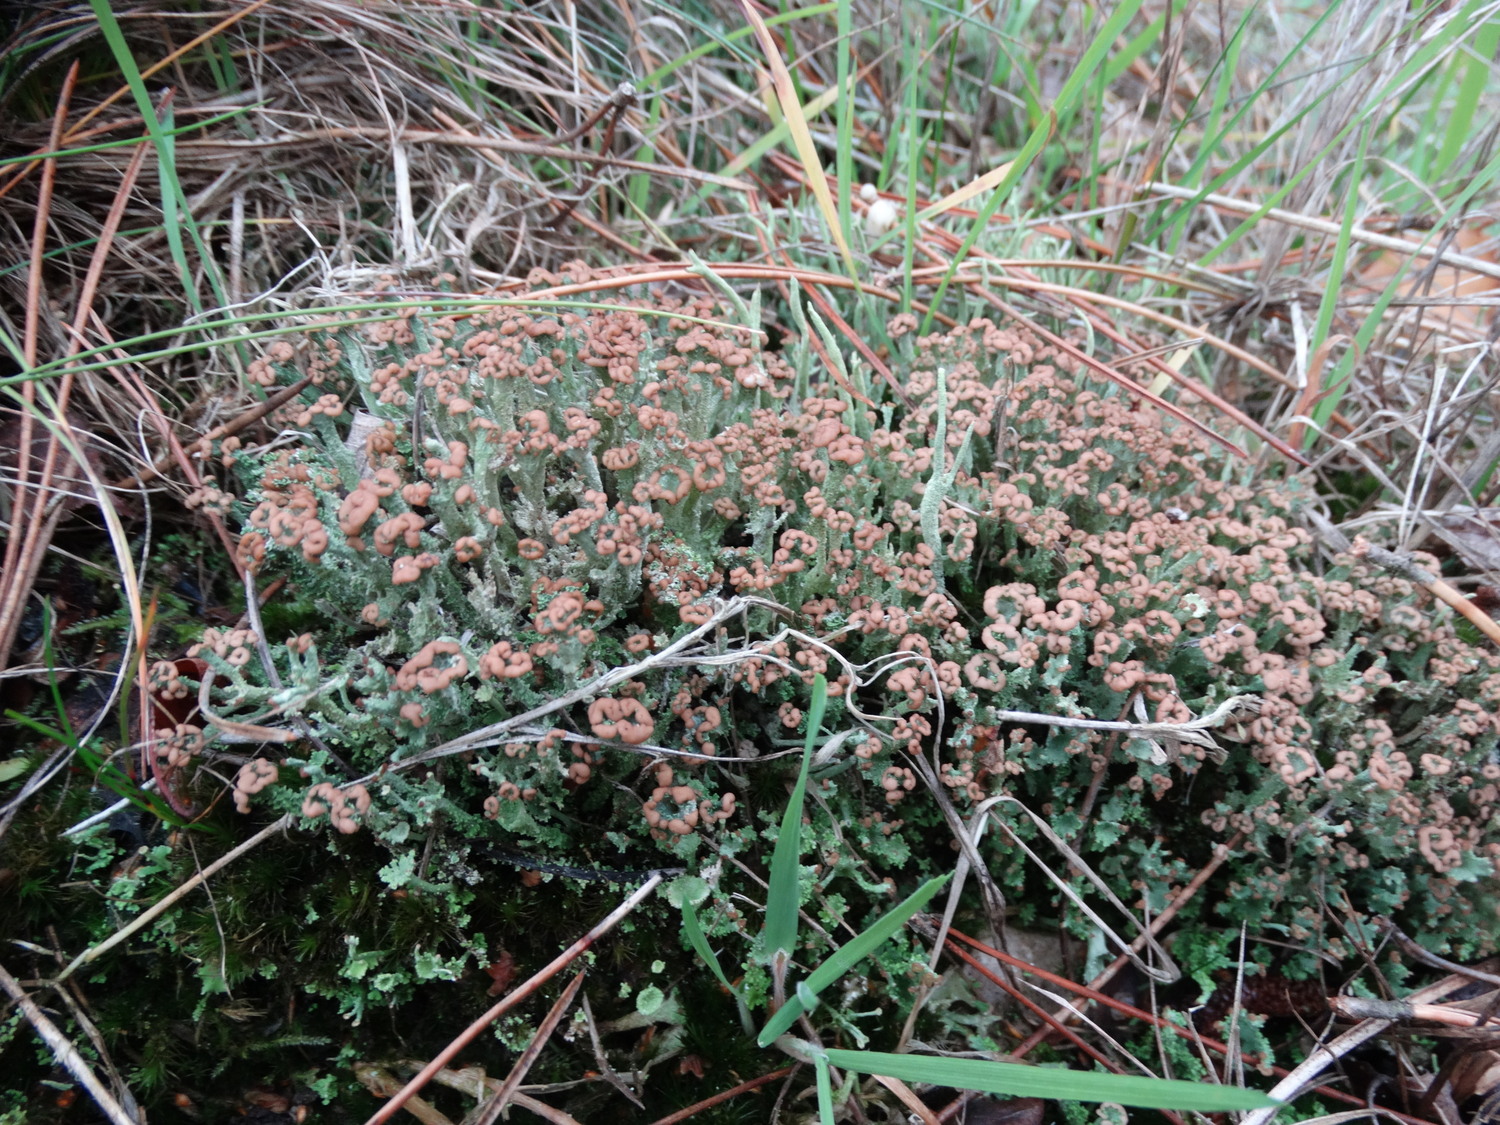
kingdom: Fungi
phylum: Ascomycota
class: Lecanoromycetes
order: Lecanorales
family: Cladoniaceae
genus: Cladonia
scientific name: Cladonia ramulosa
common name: kliddet bægerlav
